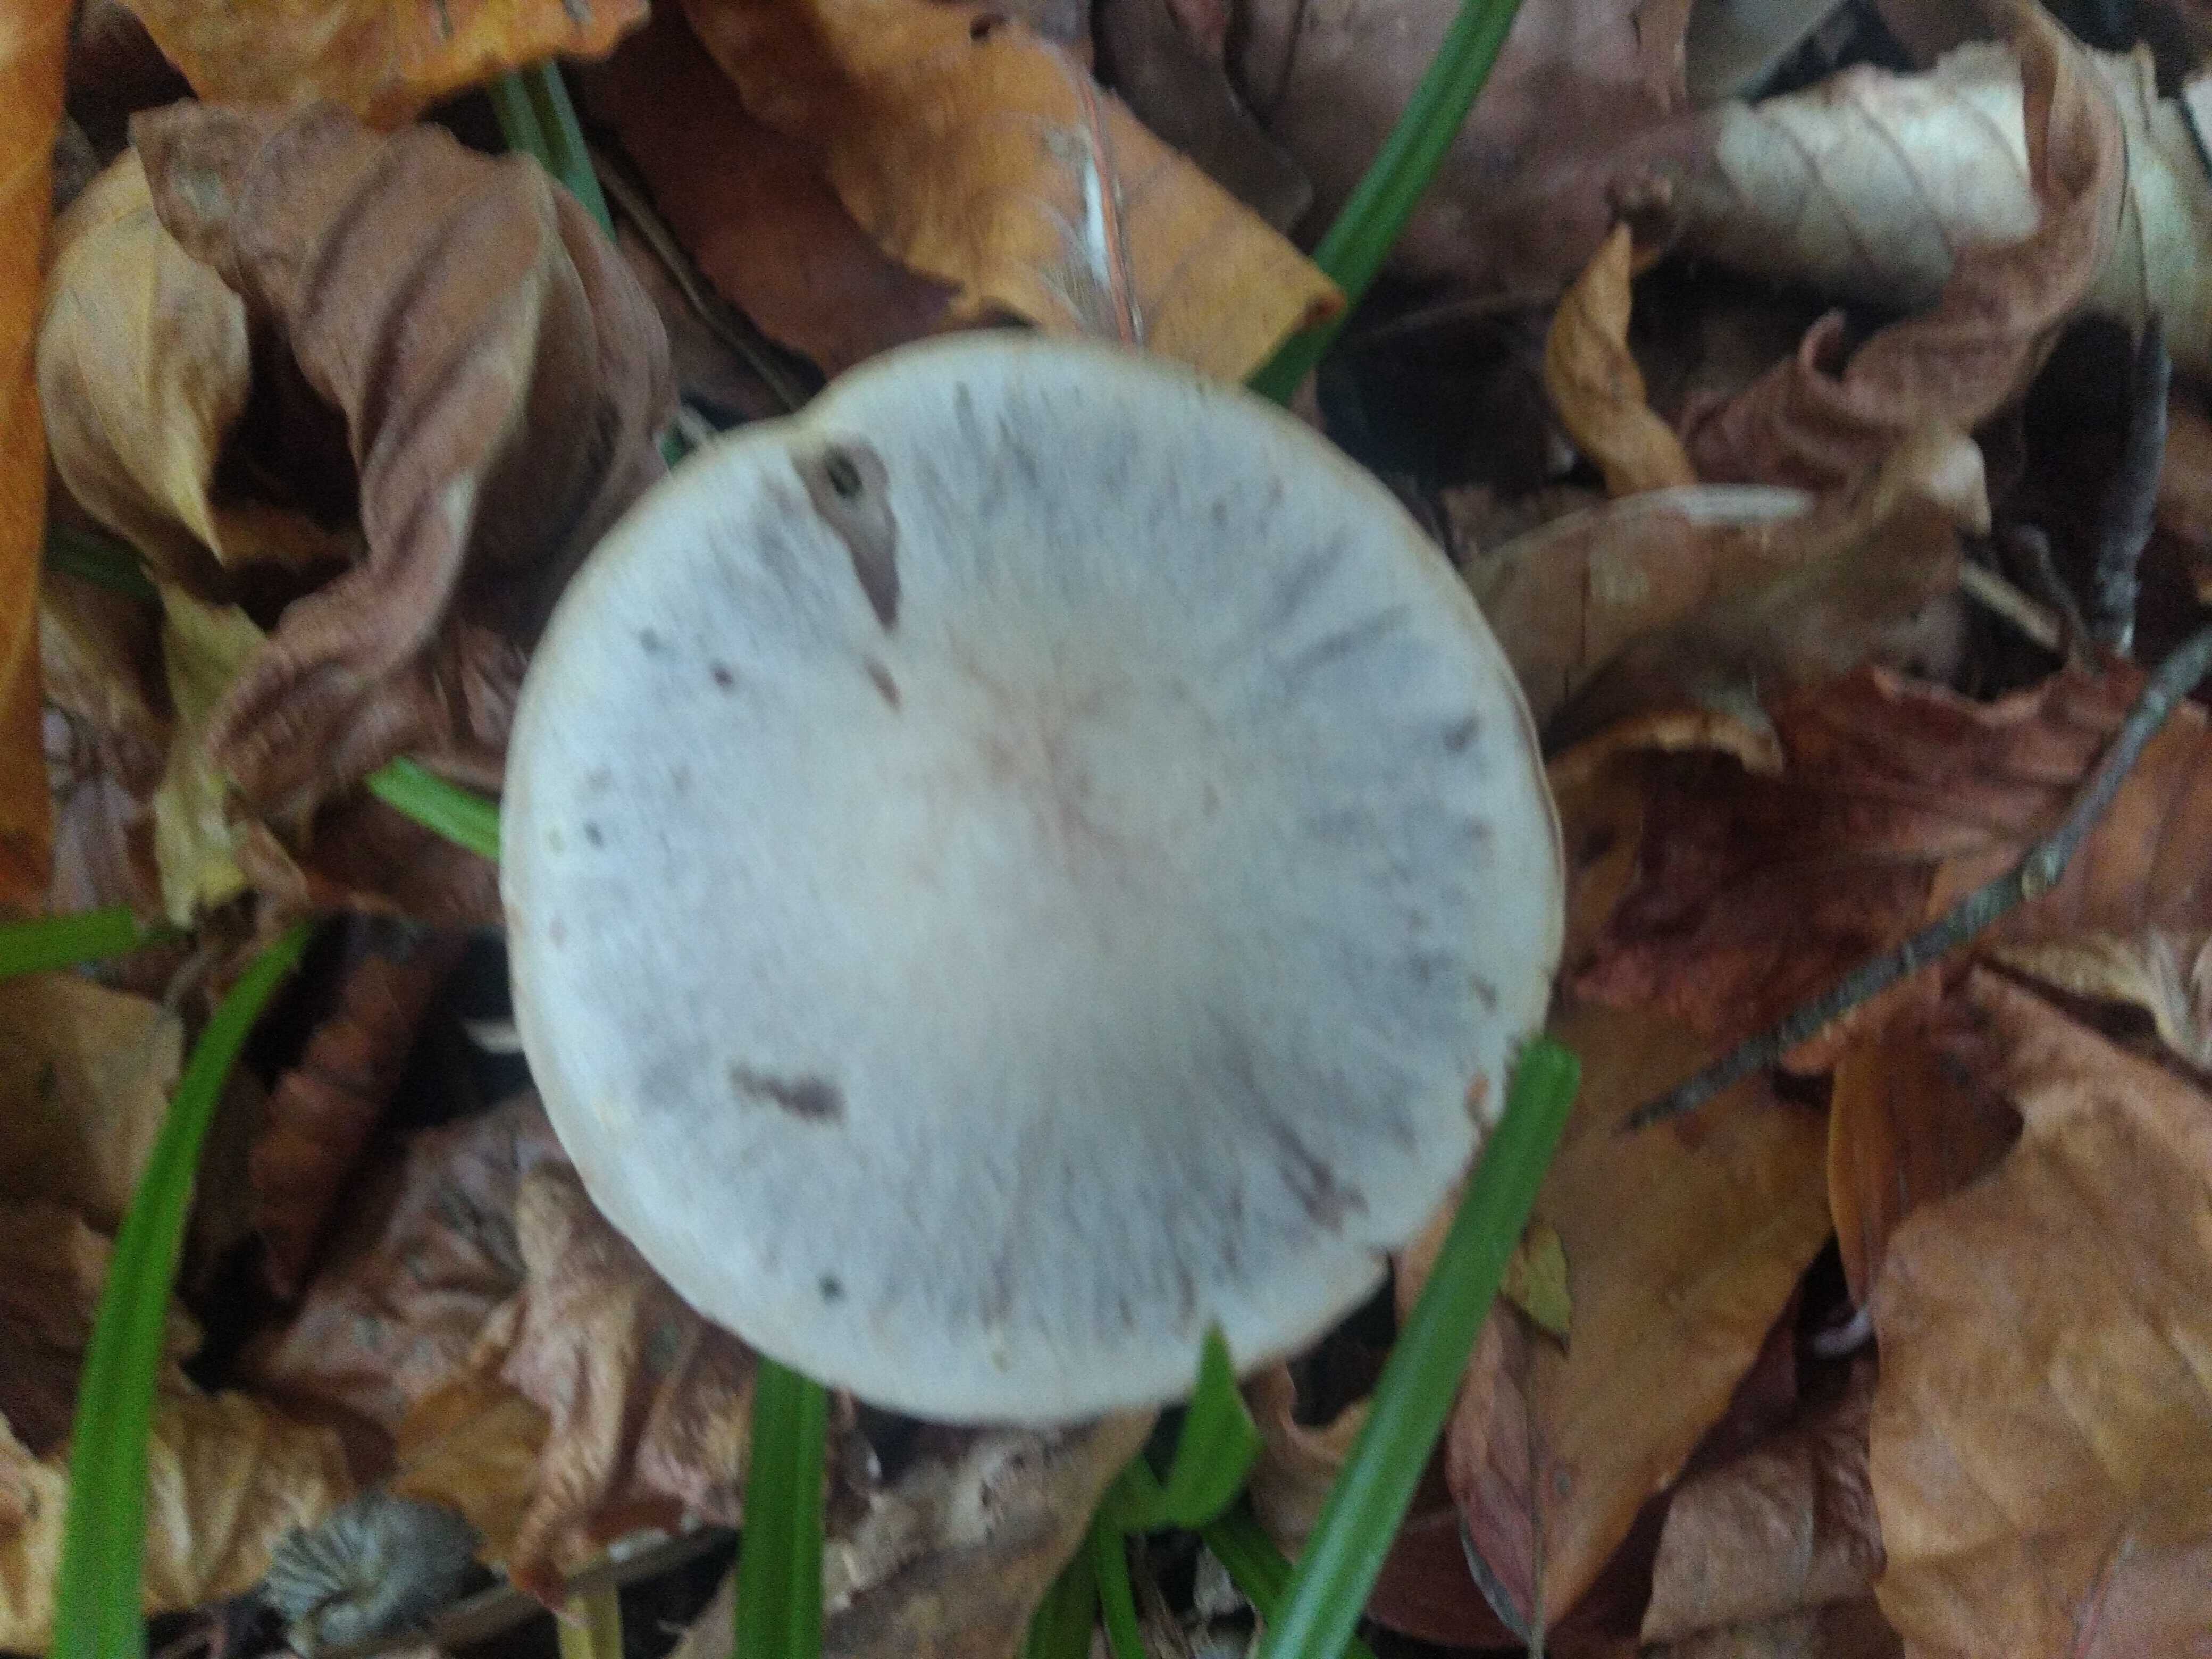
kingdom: Fungi
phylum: Basidiomycota
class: Agaricomycetes
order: Agaricales
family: Cortinariaceae
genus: Cortinarius
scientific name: Cortinarius
